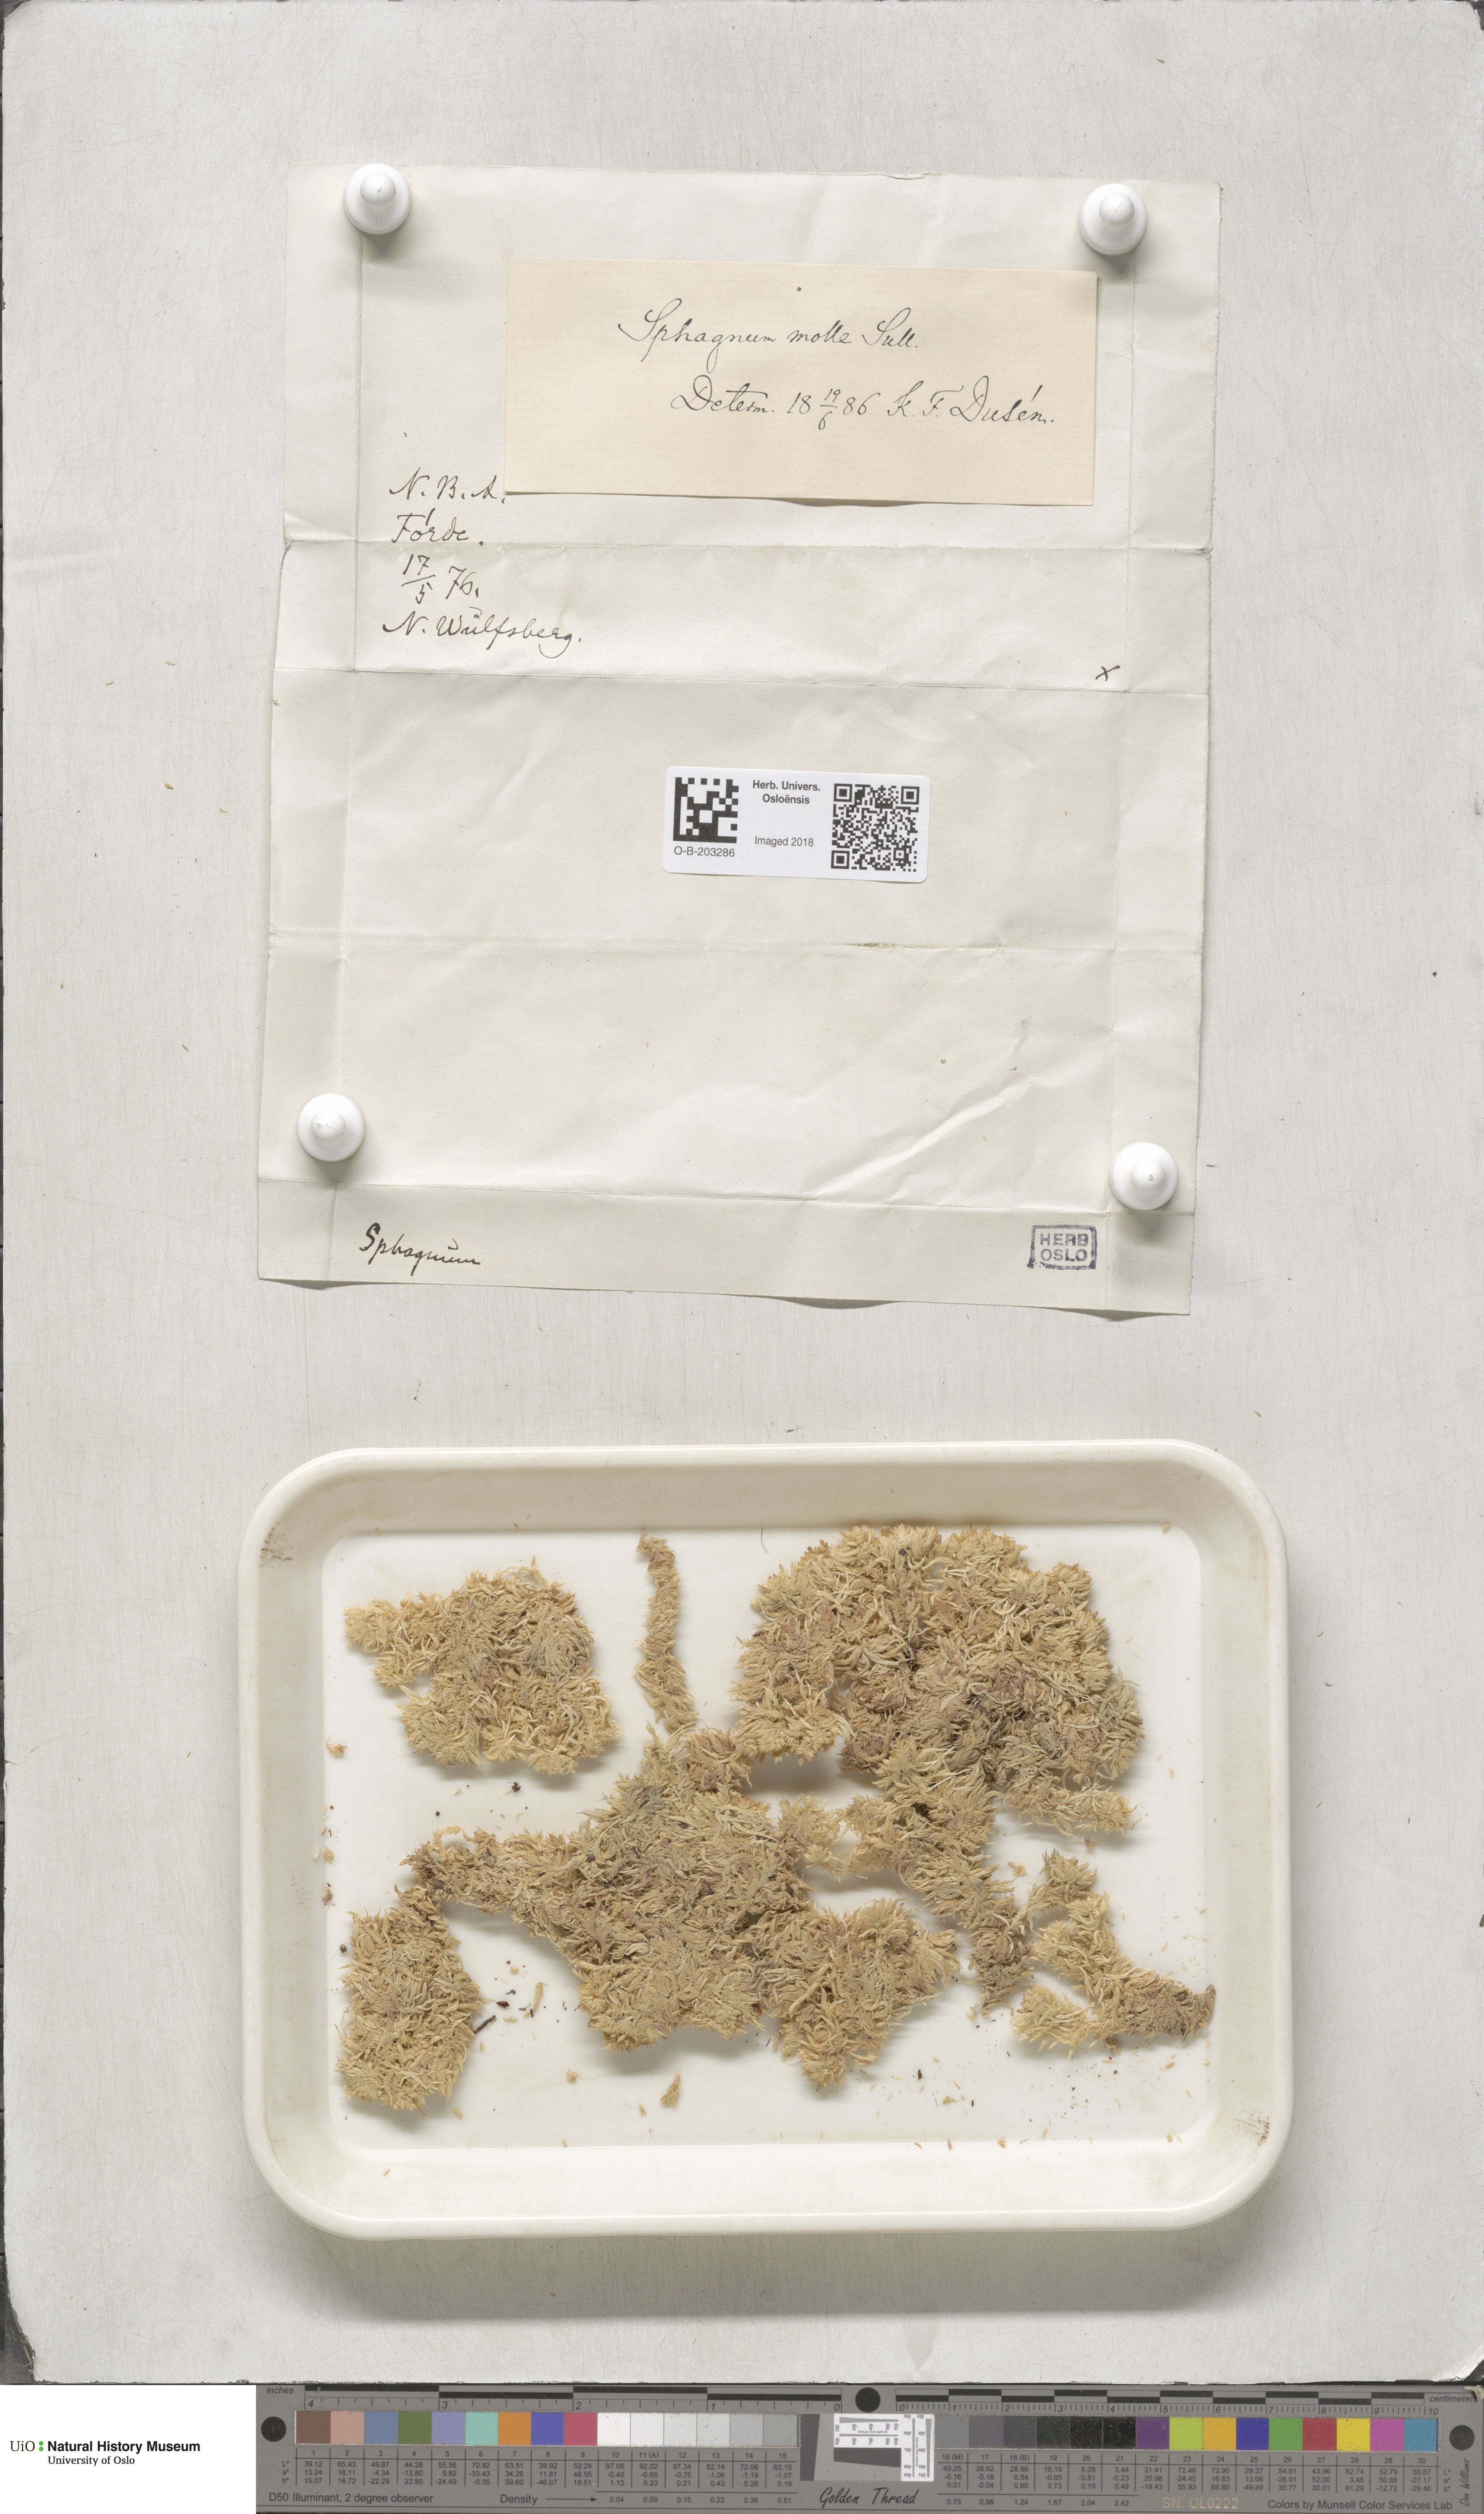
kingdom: Plantae
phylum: Bryophyta
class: Sphagnopsida
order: Sphagnales
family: Sphagnaceae
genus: Sphagnum
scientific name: Sphagnum molle
